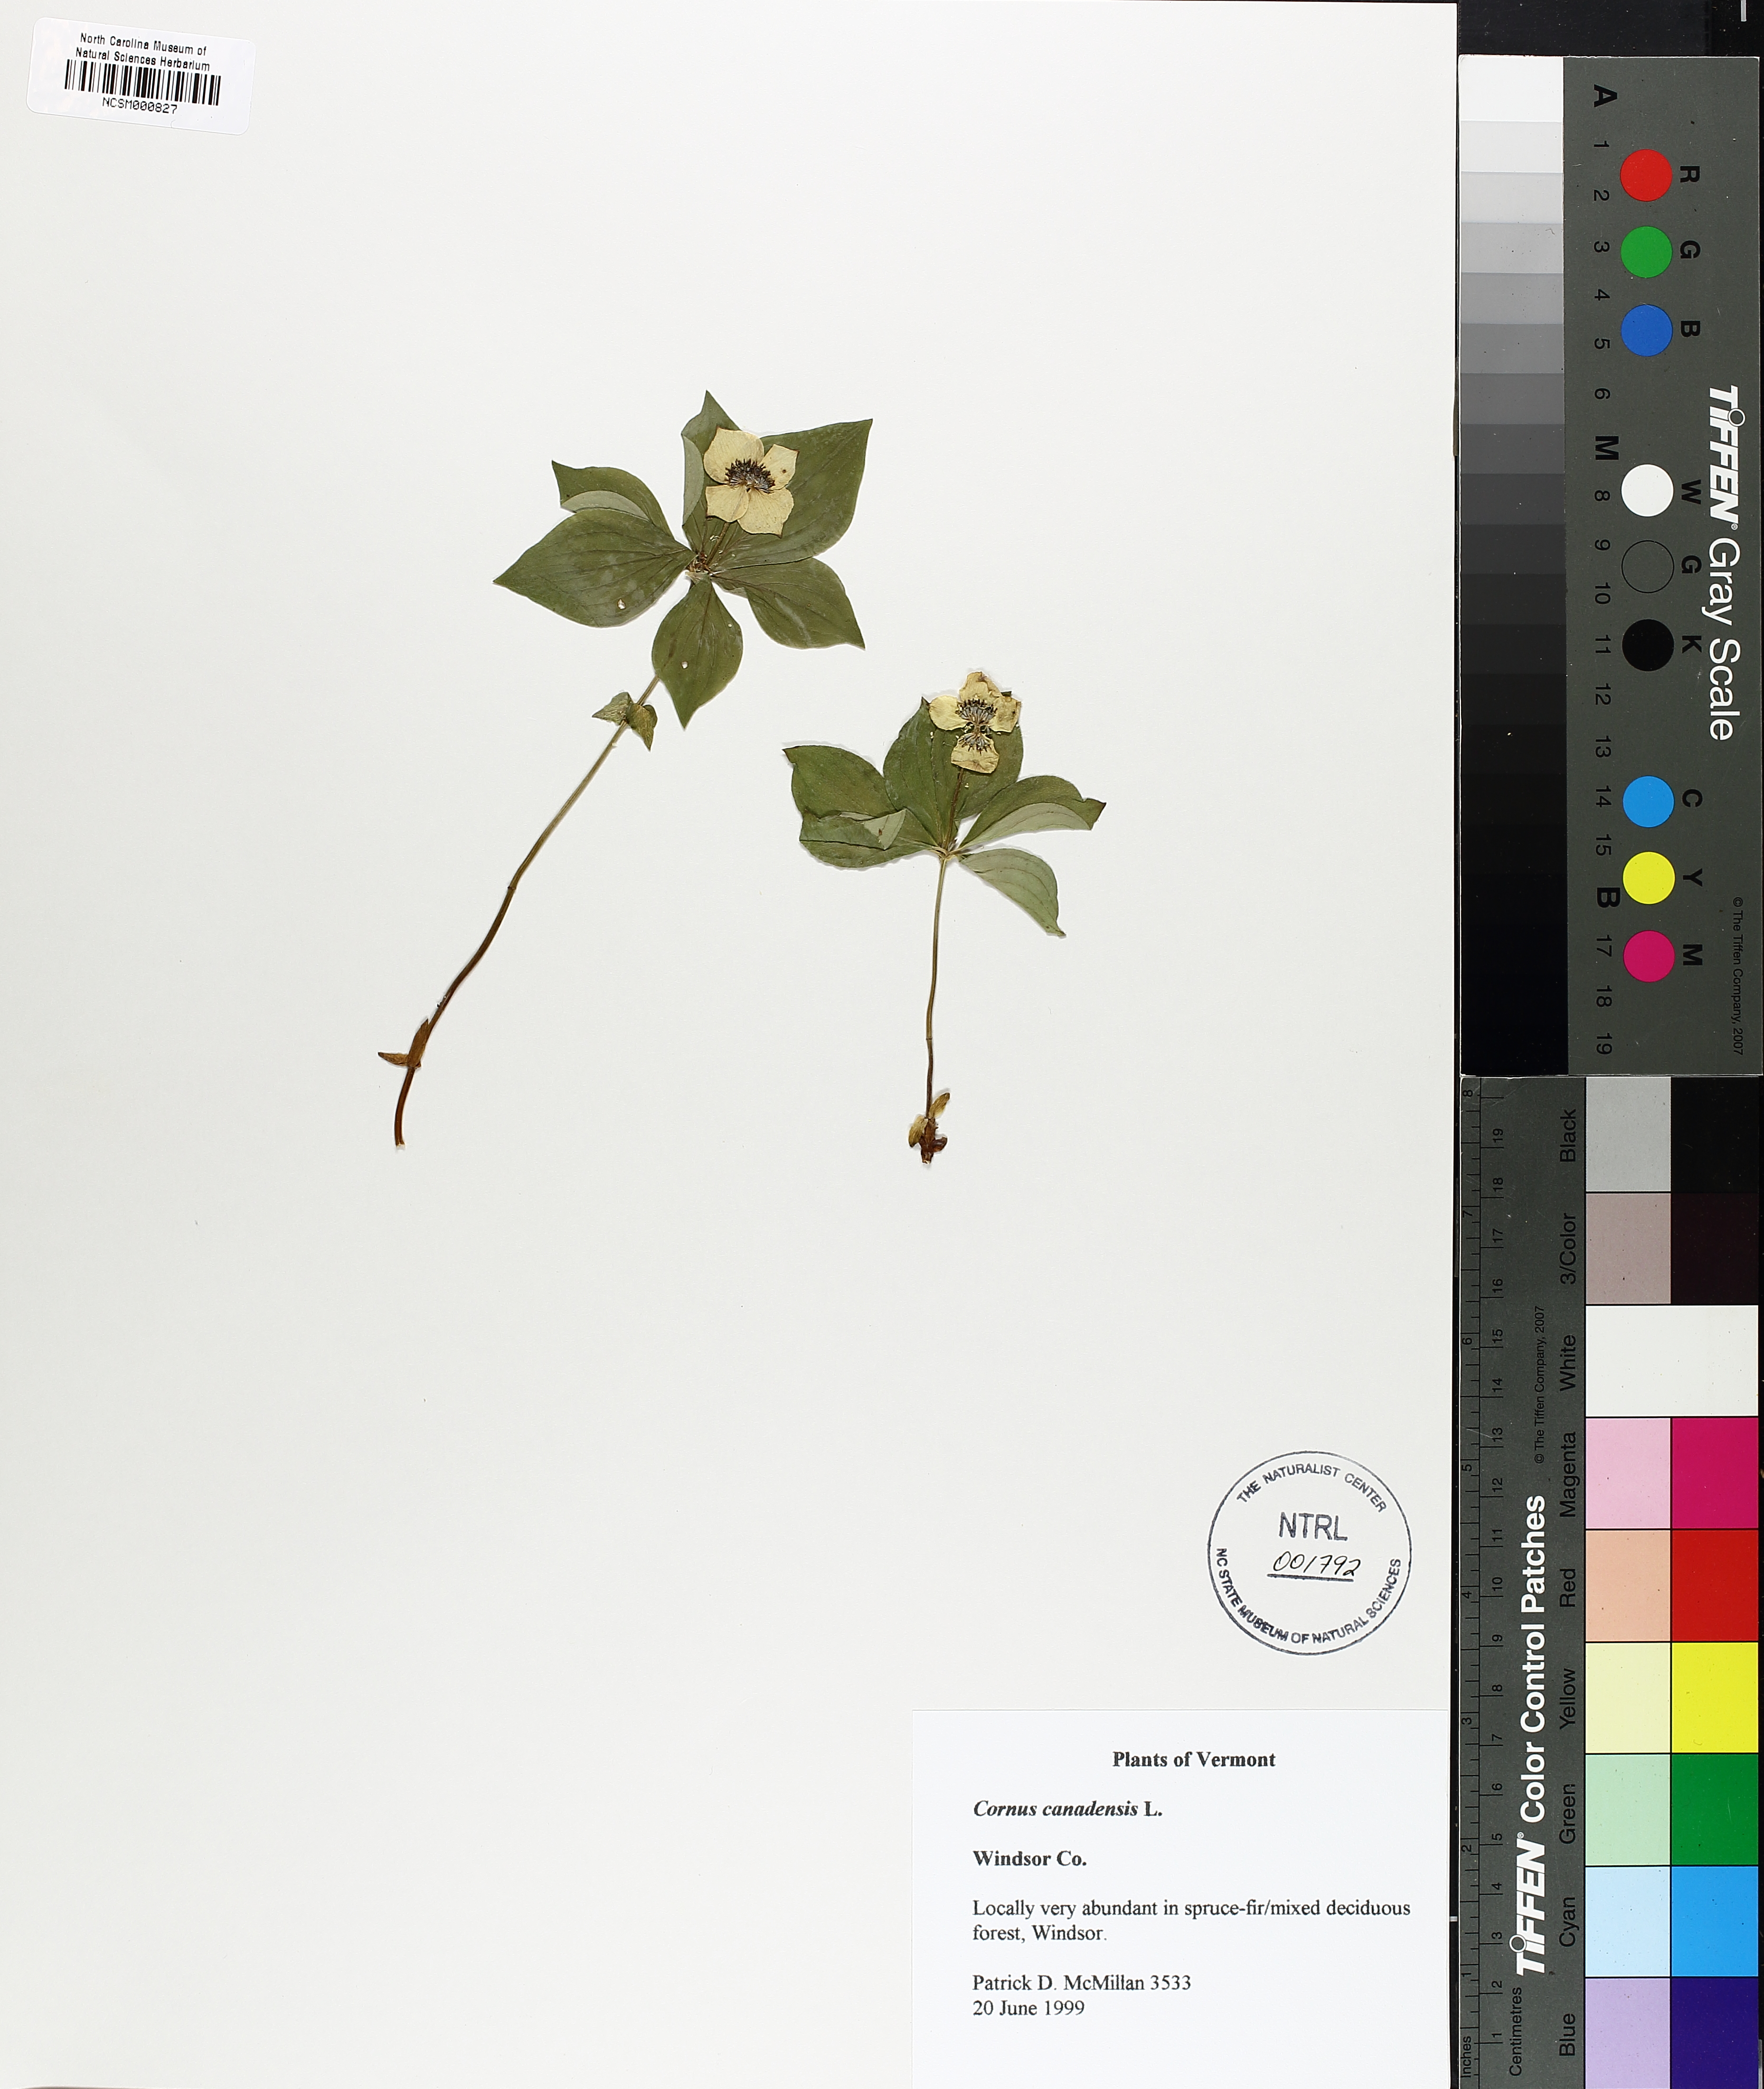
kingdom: Plantae
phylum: Tracheophyta
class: Magnoliopsida
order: Cornales
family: Cornaceae
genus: Cornus
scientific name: Cornus canadensis
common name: Creeping dogwood
